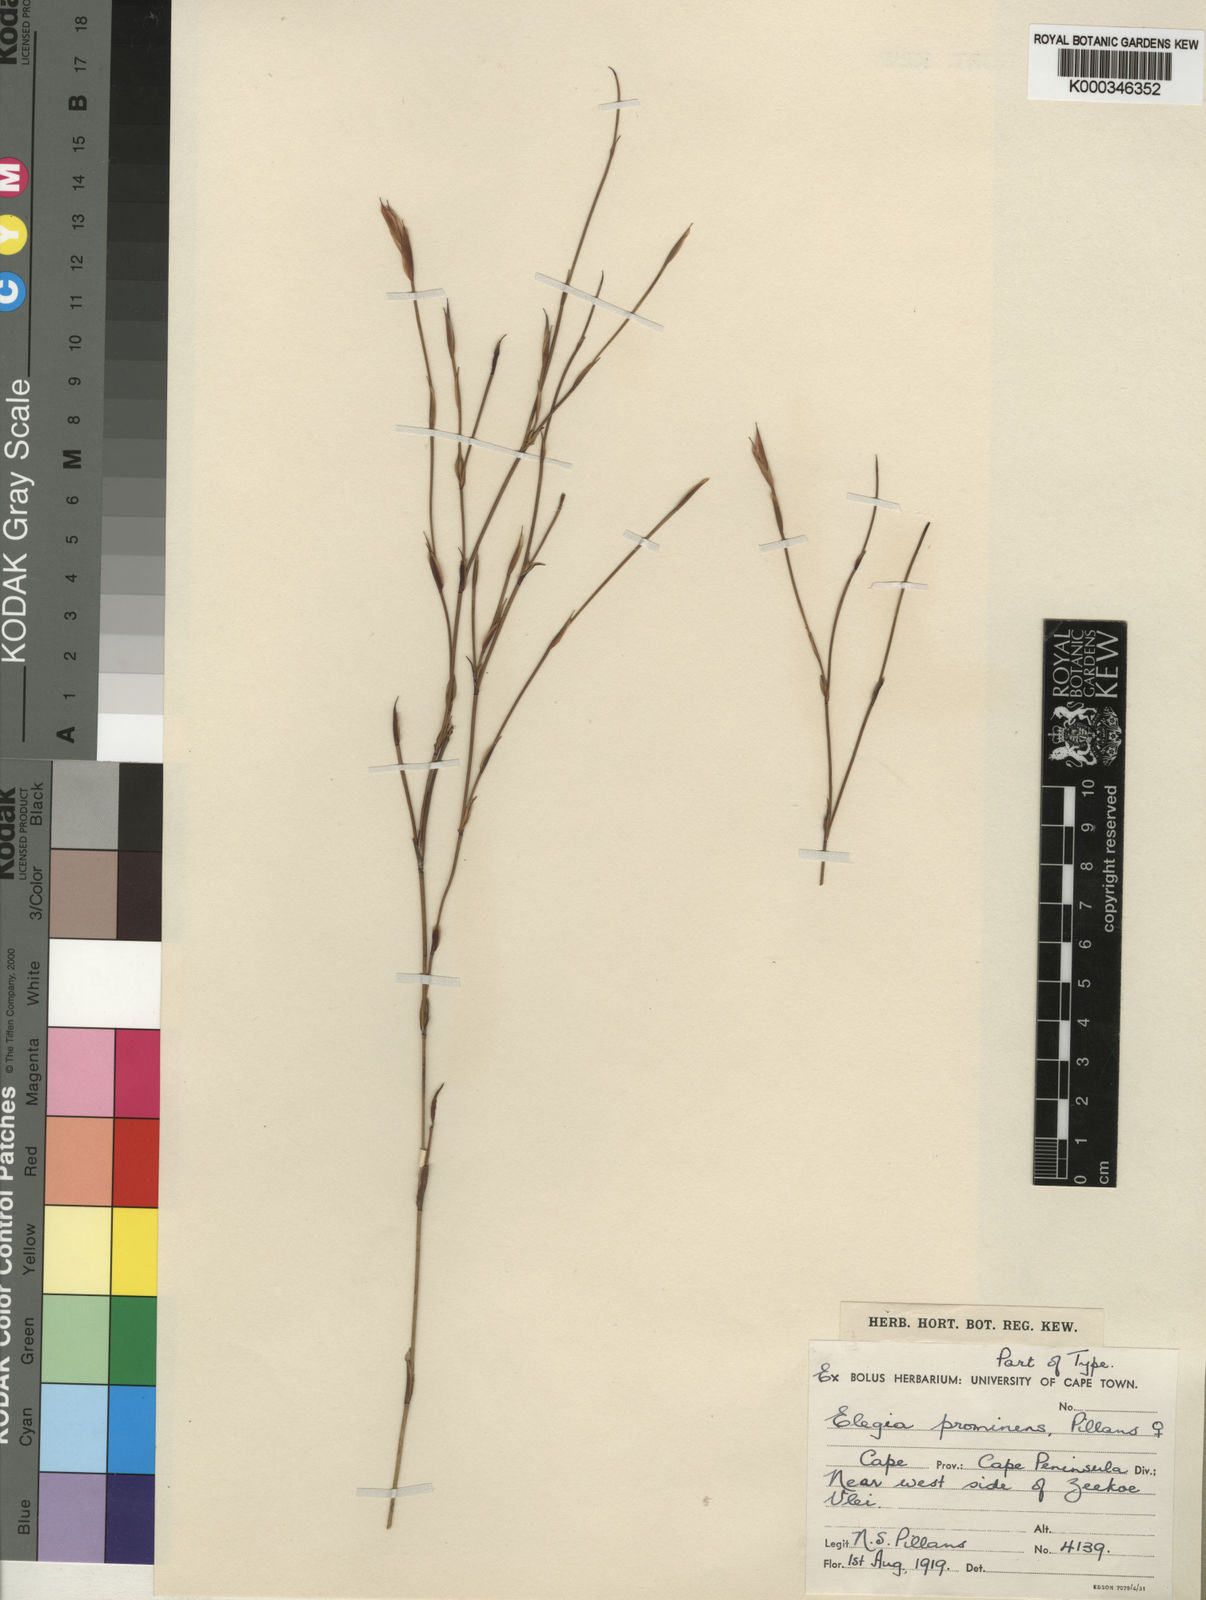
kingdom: Plantae
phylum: Tracheophyta
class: Liliopsida
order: Poales
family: Restionaceae
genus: Elegia
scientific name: Elegia prominens
